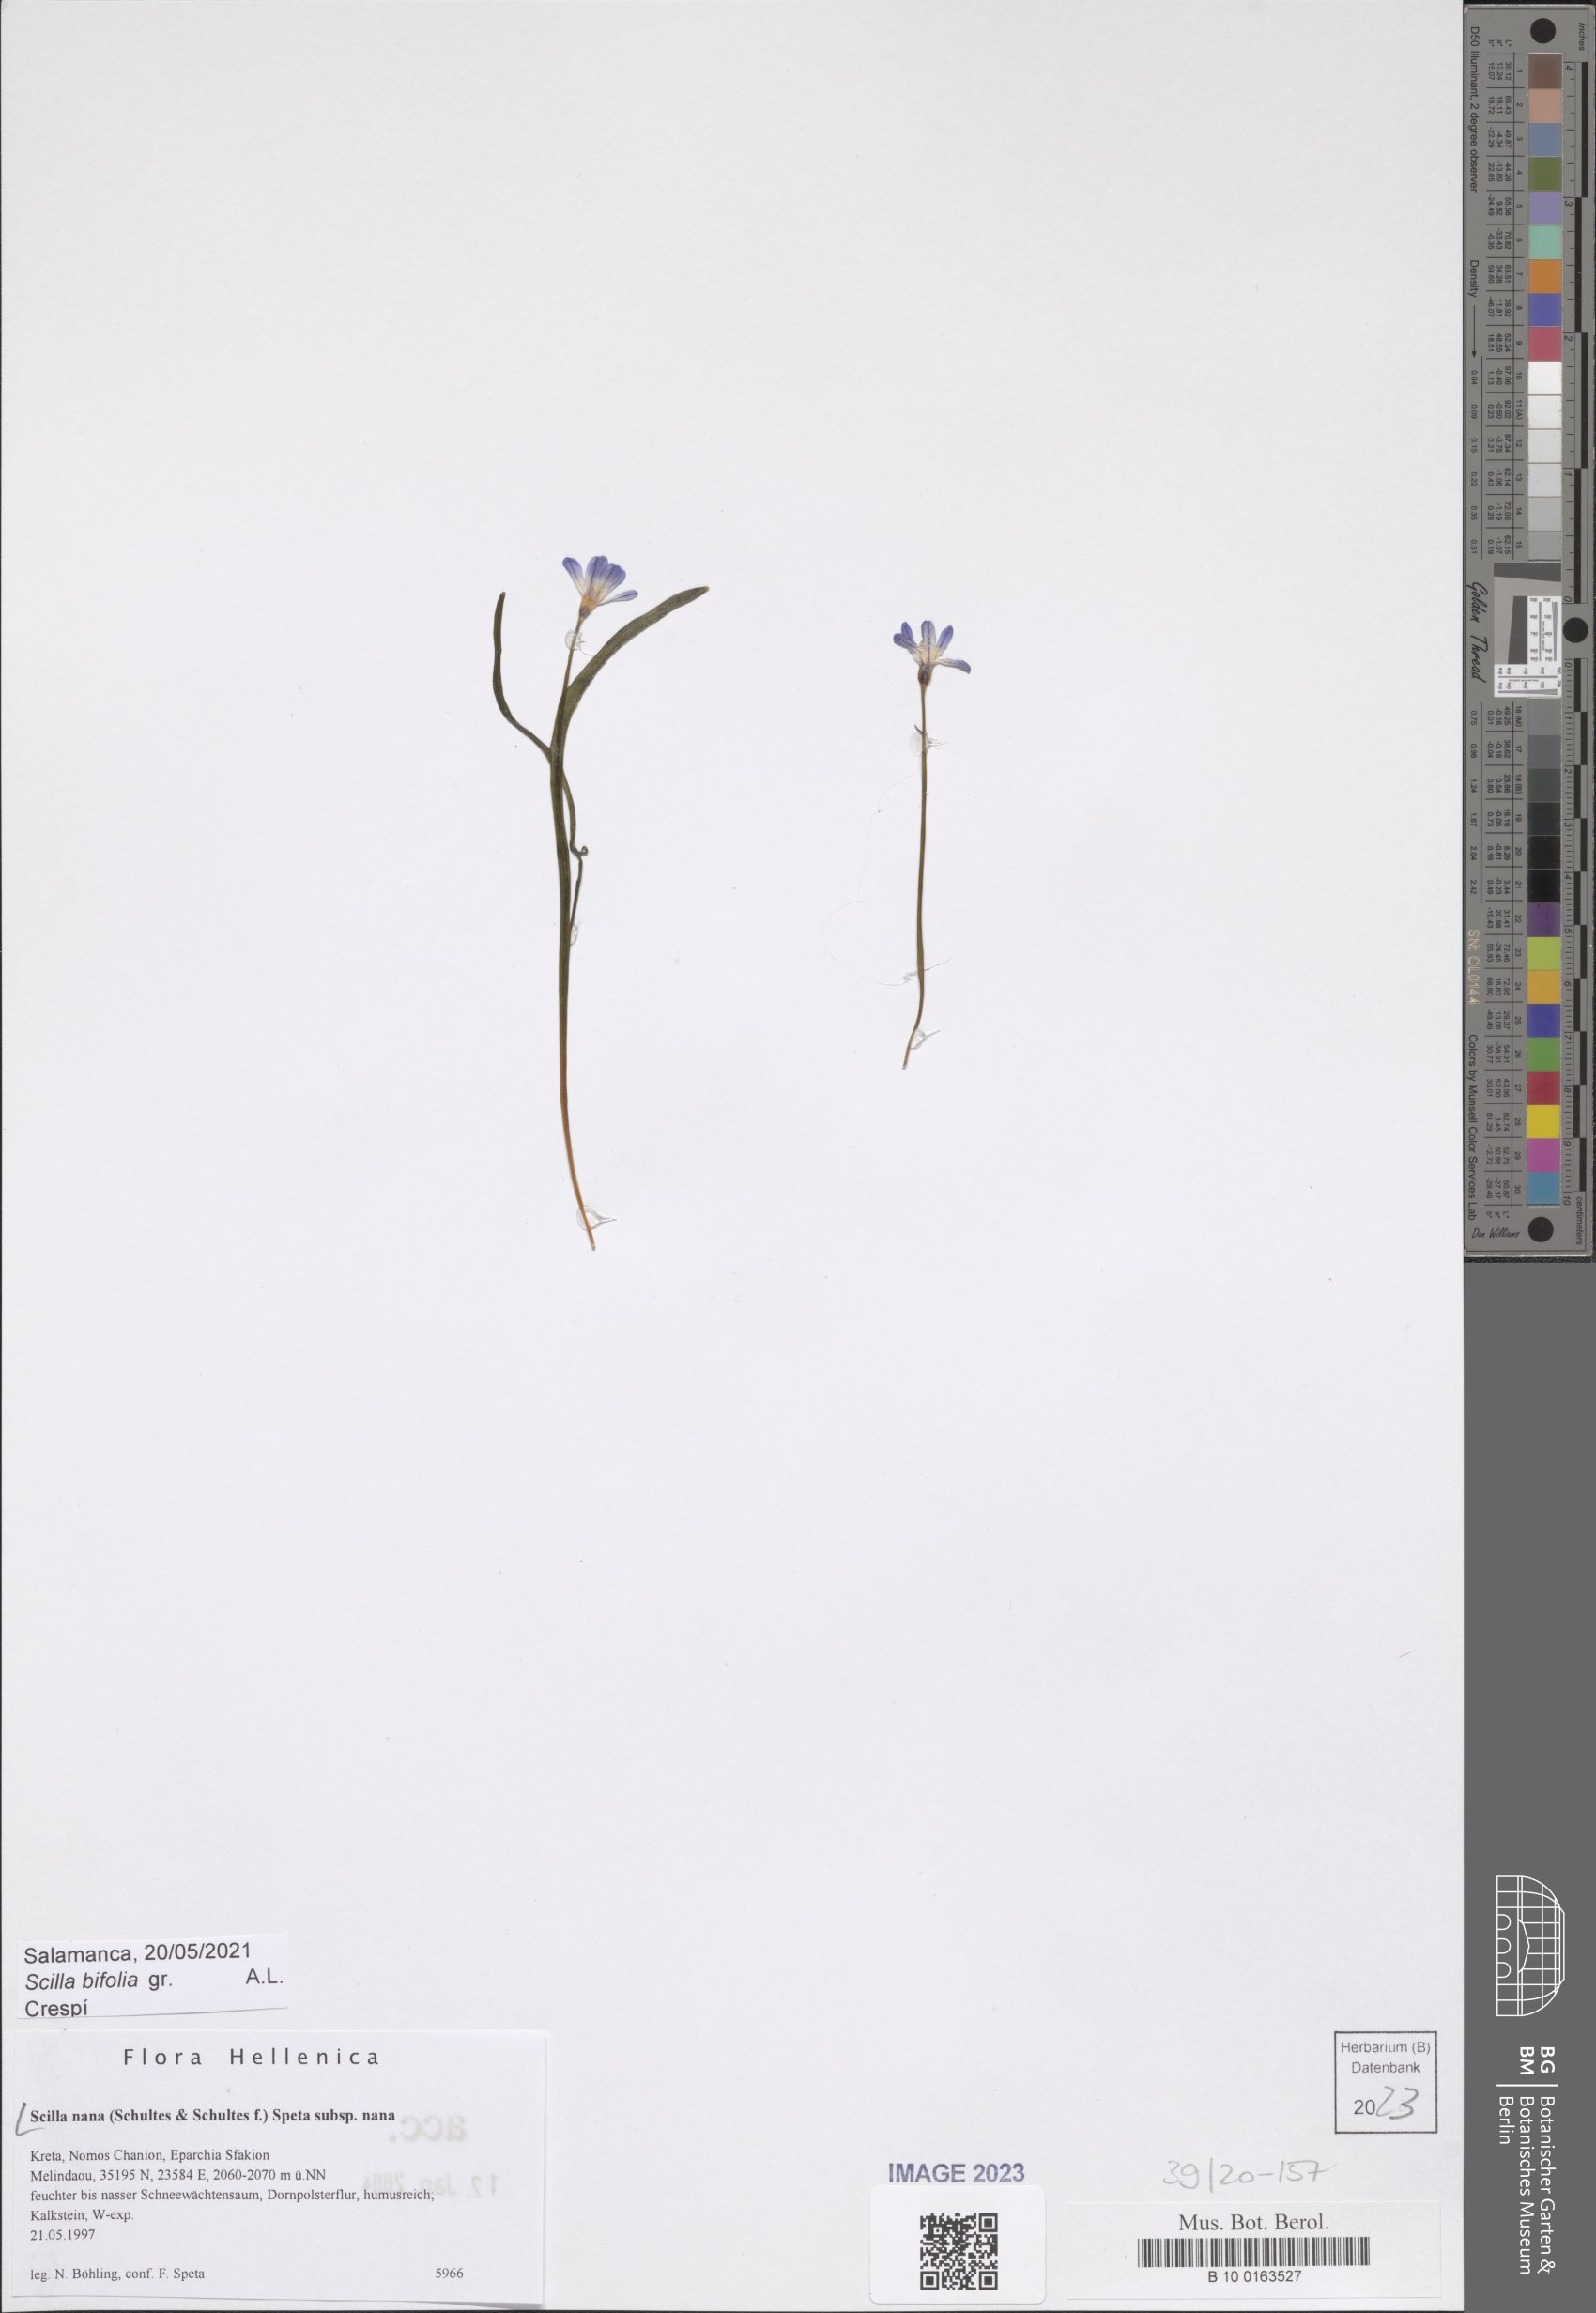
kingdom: Plantae
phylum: Tracheophyta
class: Liliopsida
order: Asparagales
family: Asparagaceae
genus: Scilla
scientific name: Scilla nana
